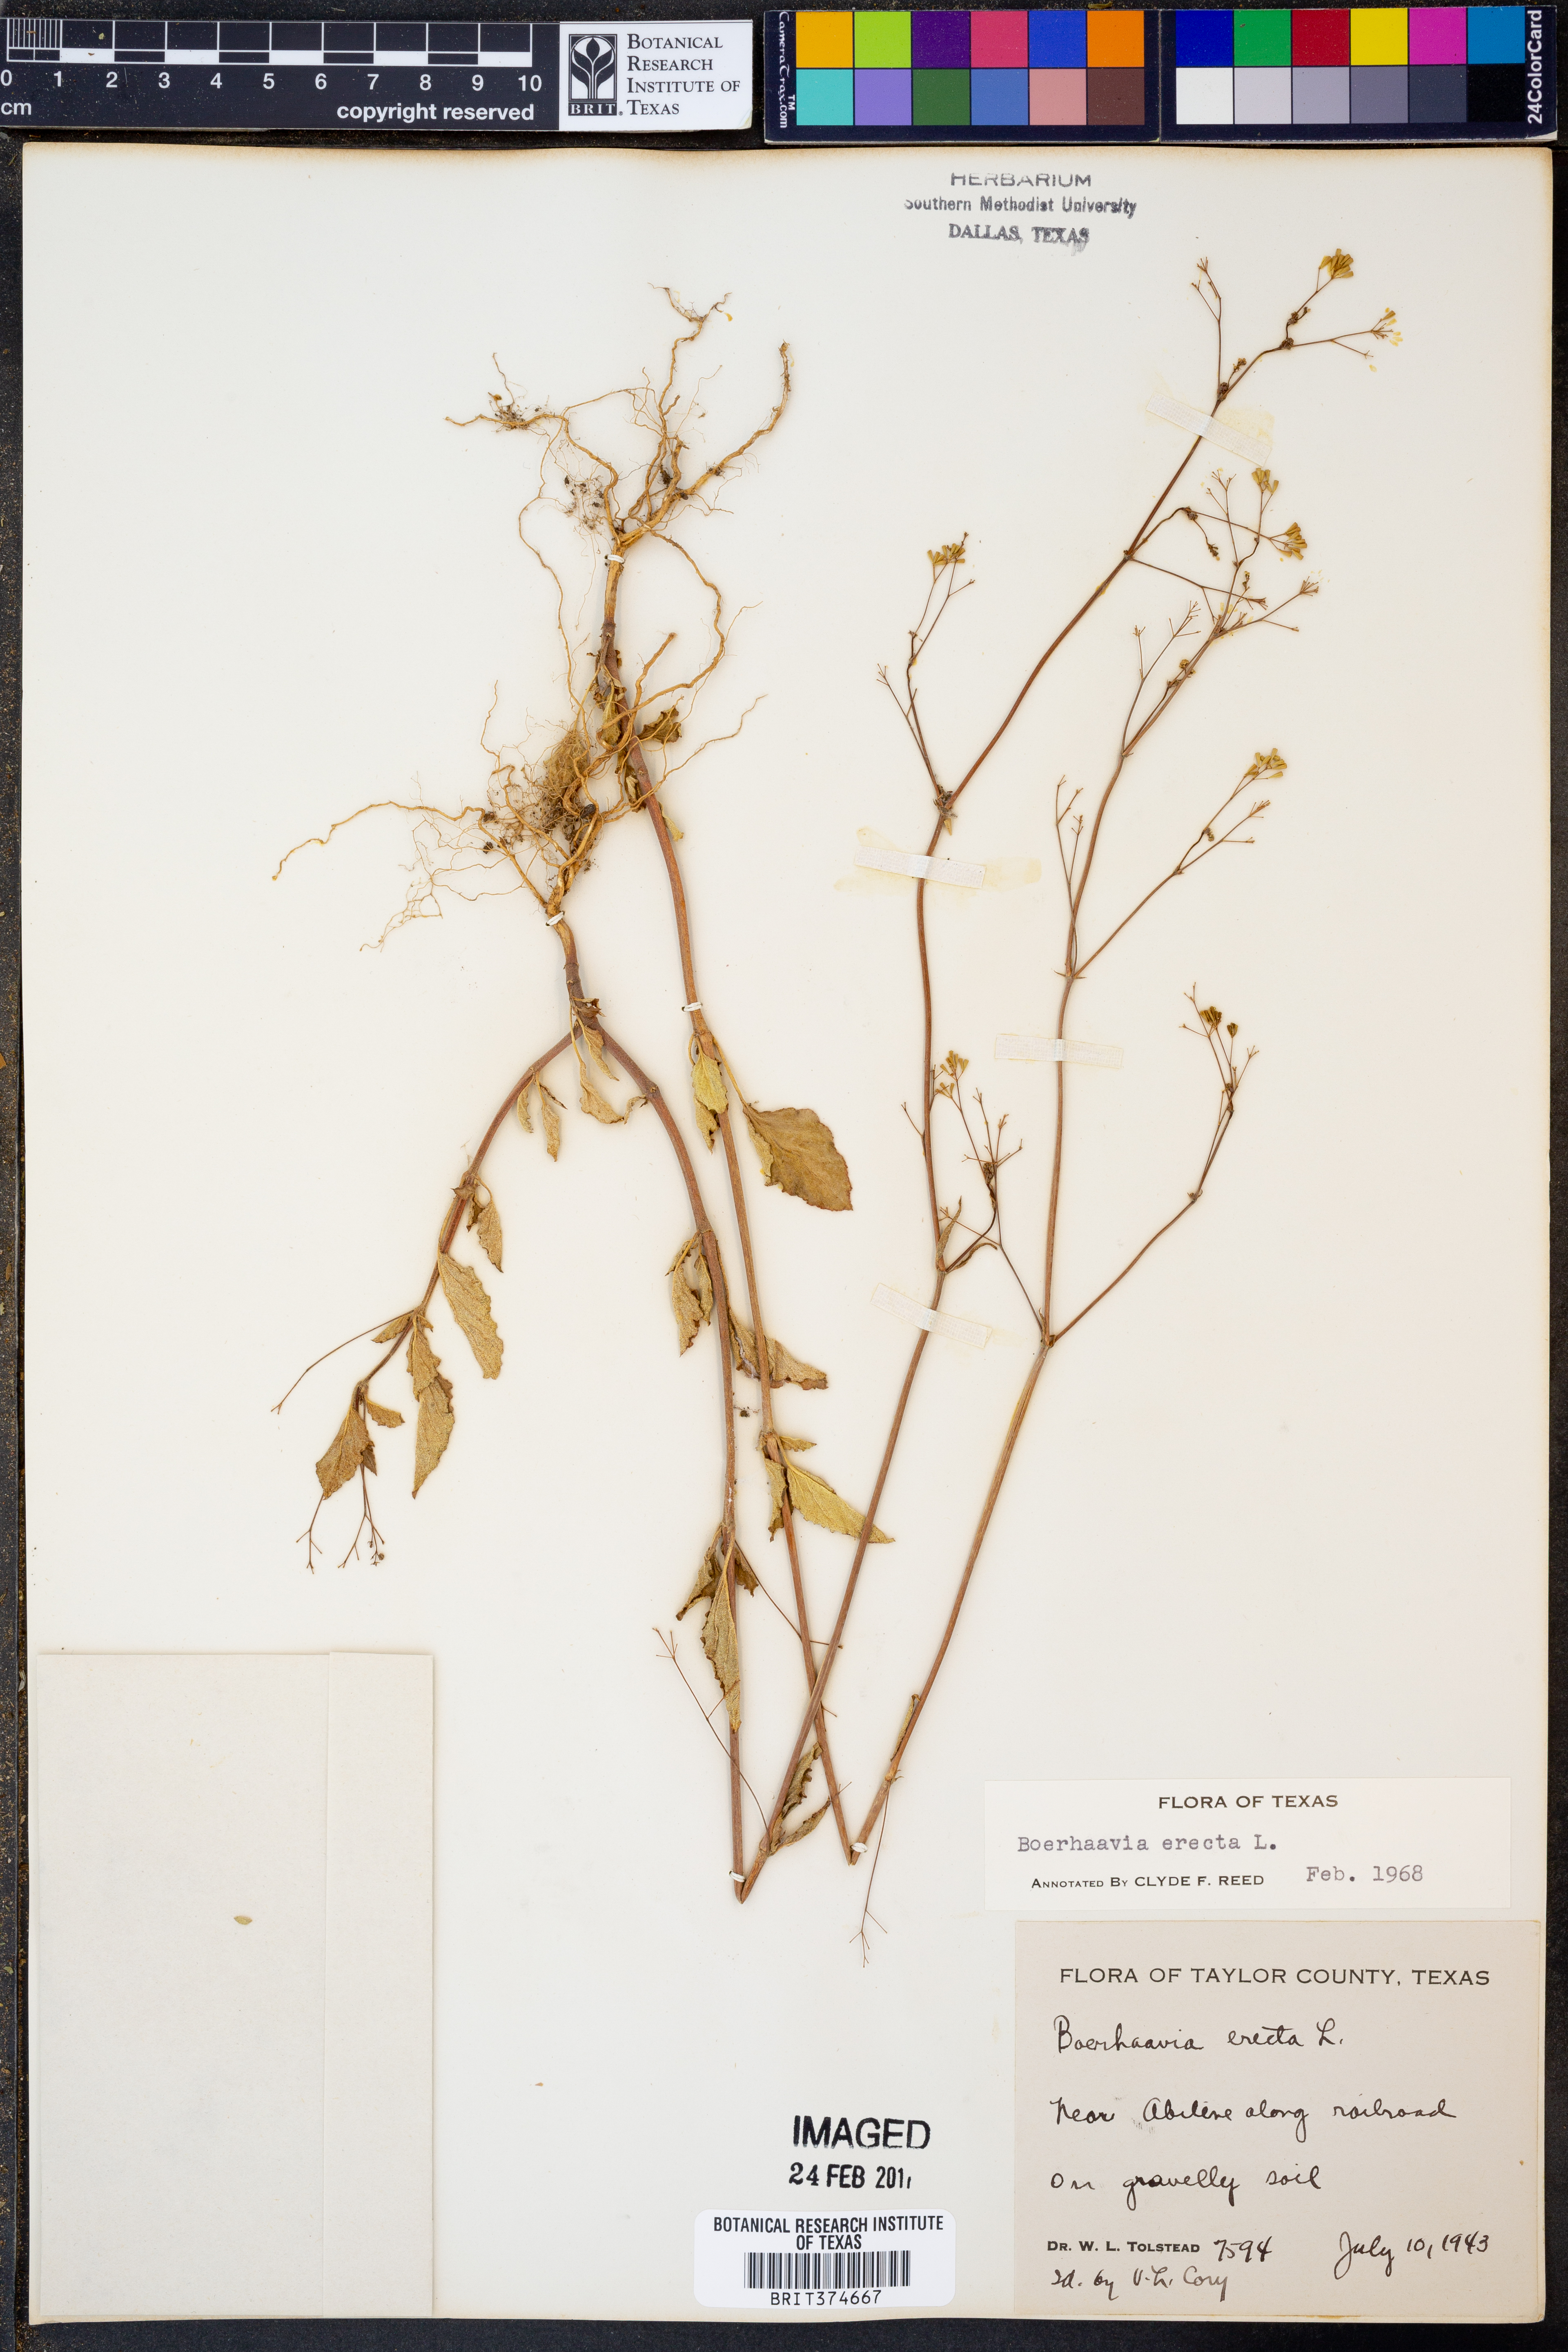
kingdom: Plantae
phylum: Tracheophyta
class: Magnoliopsida
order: Caryophyllales
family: Nyctaginaceae
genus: Boerhavia
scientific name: Boerhavia erecta
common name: Erect spiderling
